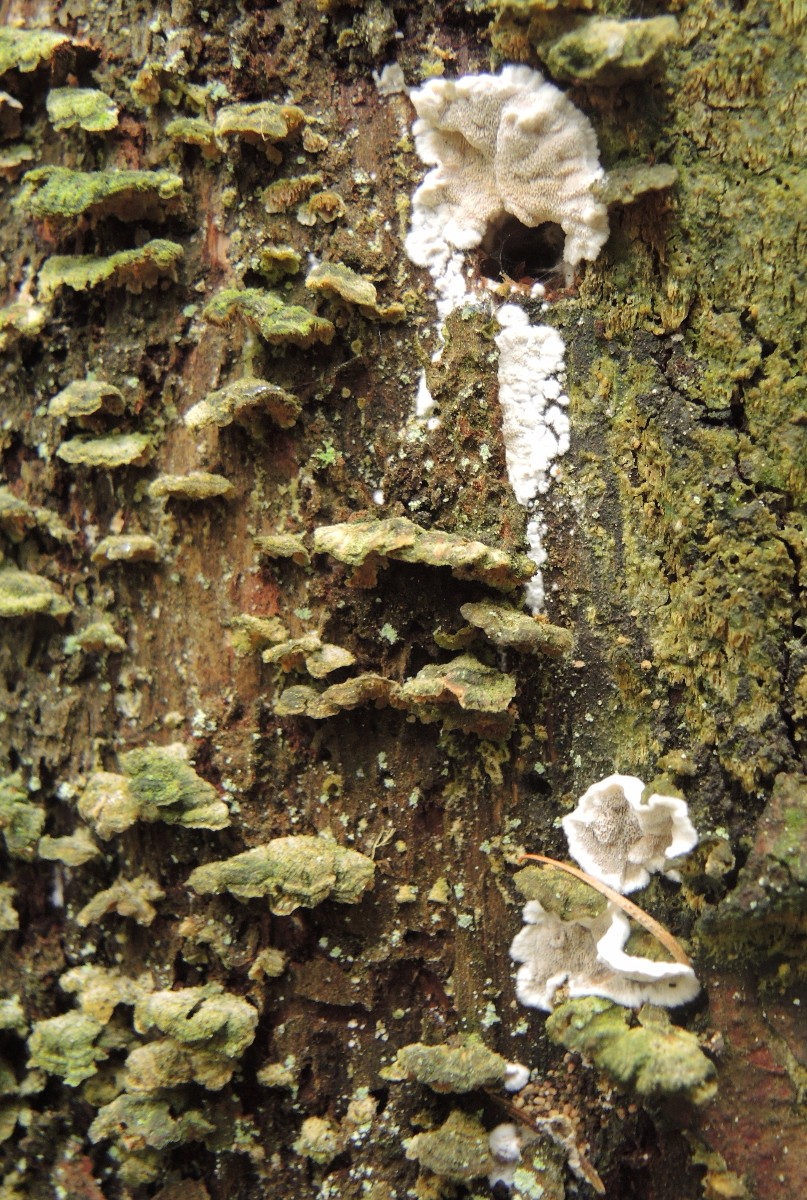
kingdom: Fungi
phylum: Basidiomycota
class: Agaricomycetes
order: Polyporales
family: Incrustoporiaceae
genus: Skeletocutis
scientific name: Skeletocutis carneogrisea
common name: rødgrå krystalporesvamp
